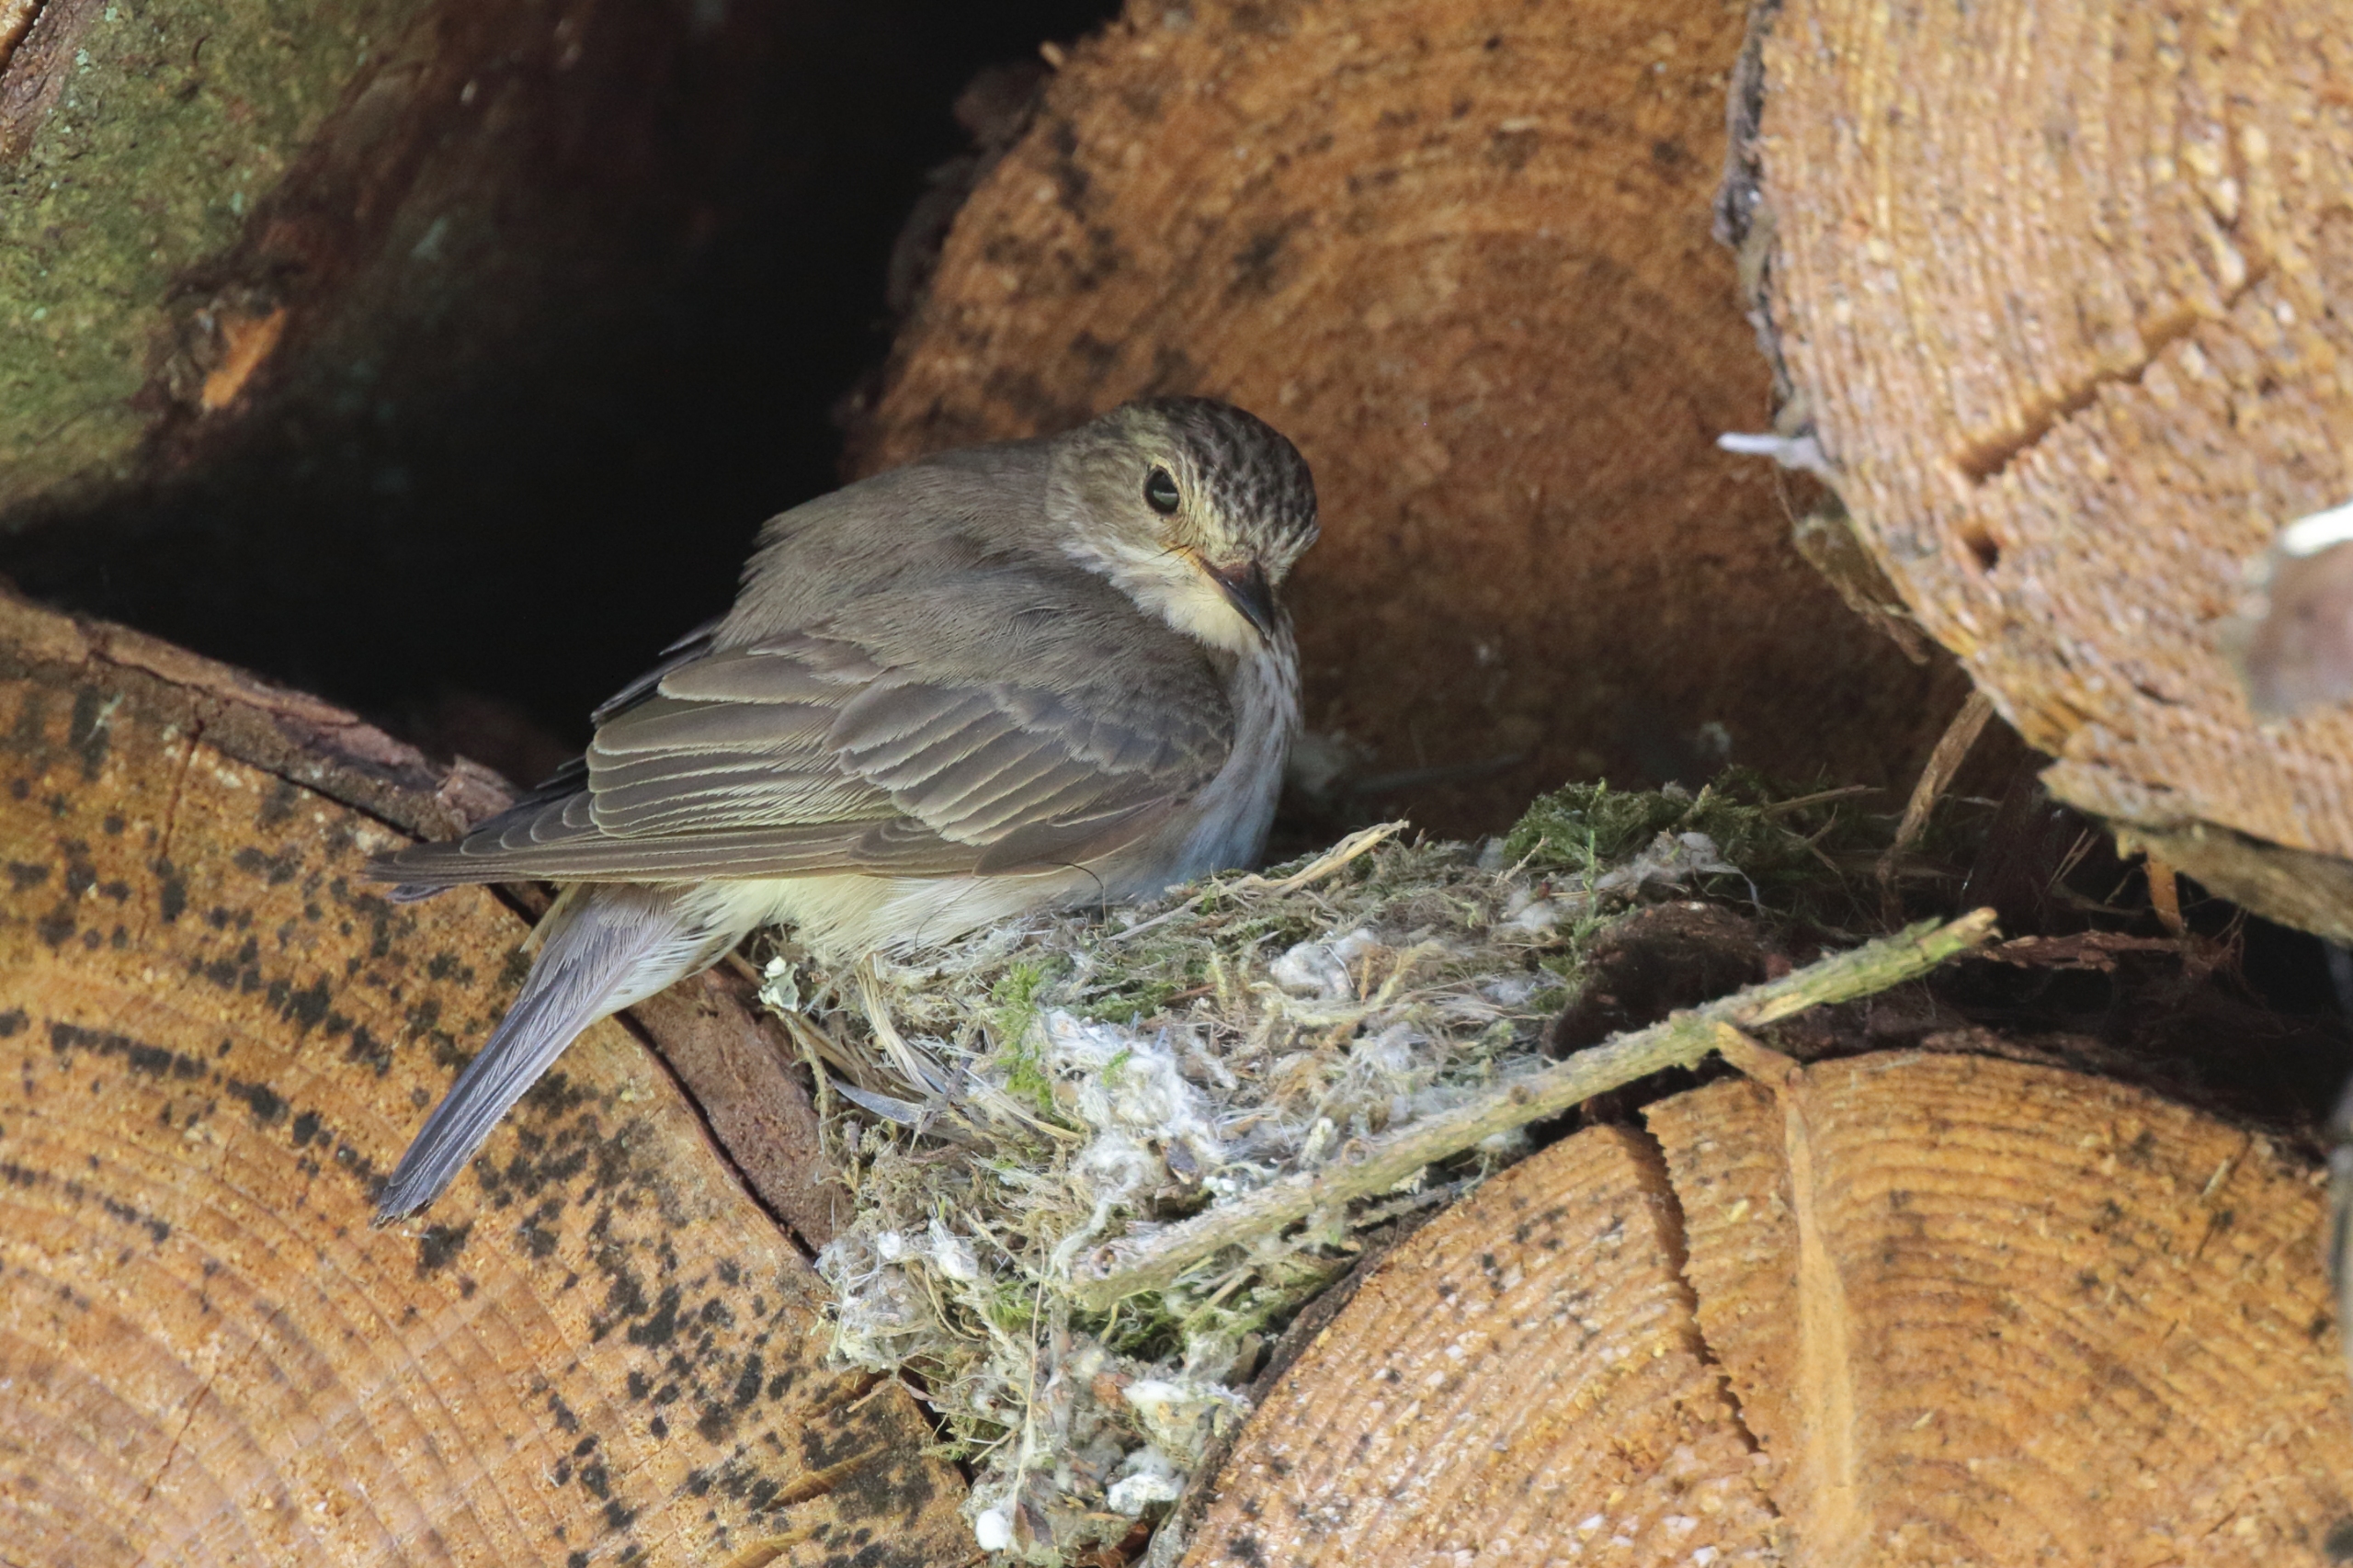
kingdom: Animalia
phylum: Chordata
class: Aves
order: Passeriformes
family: Muscicapidae
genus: Muscicapa
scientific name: Muscicapa striata
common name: Grå fluesnapper
